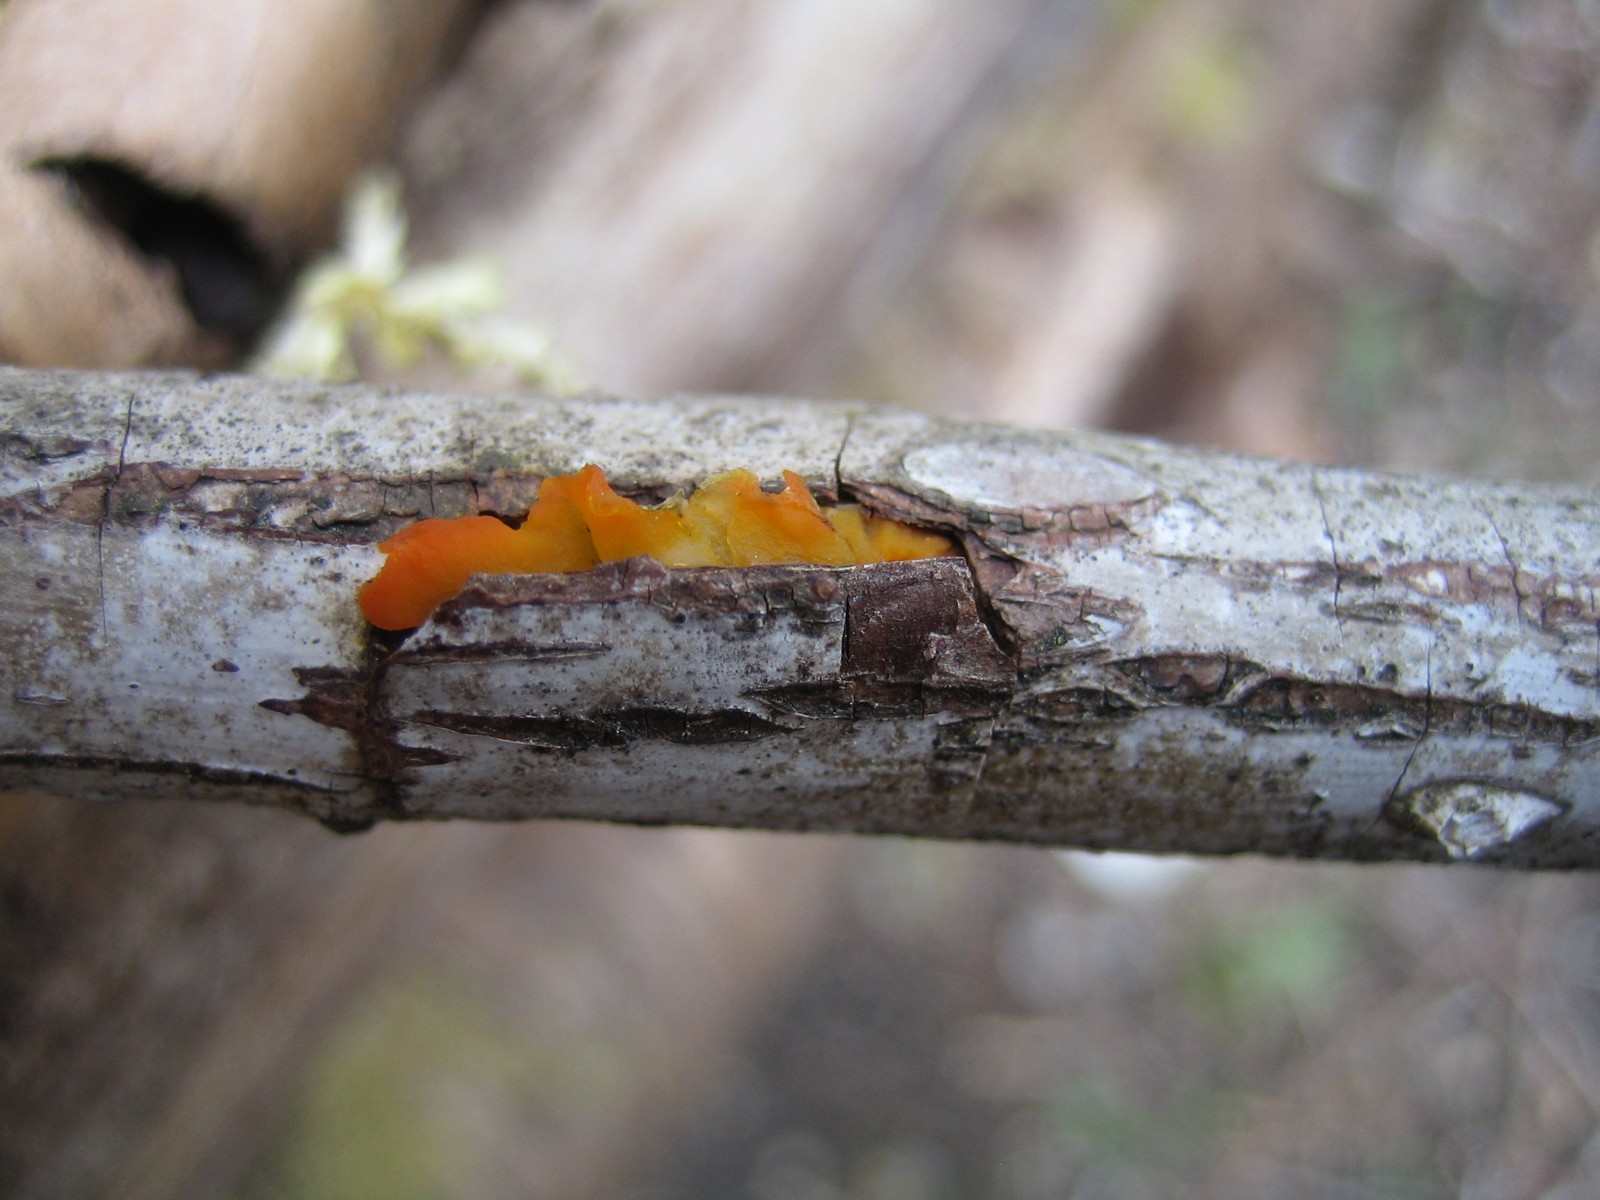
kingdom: Fungi
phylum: Basidiomycota
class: Tremellomycetes
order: Tremellales
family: Tremellaceae
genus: Tremella
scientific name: Tremella mesenterica
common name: gul bævresvamp
